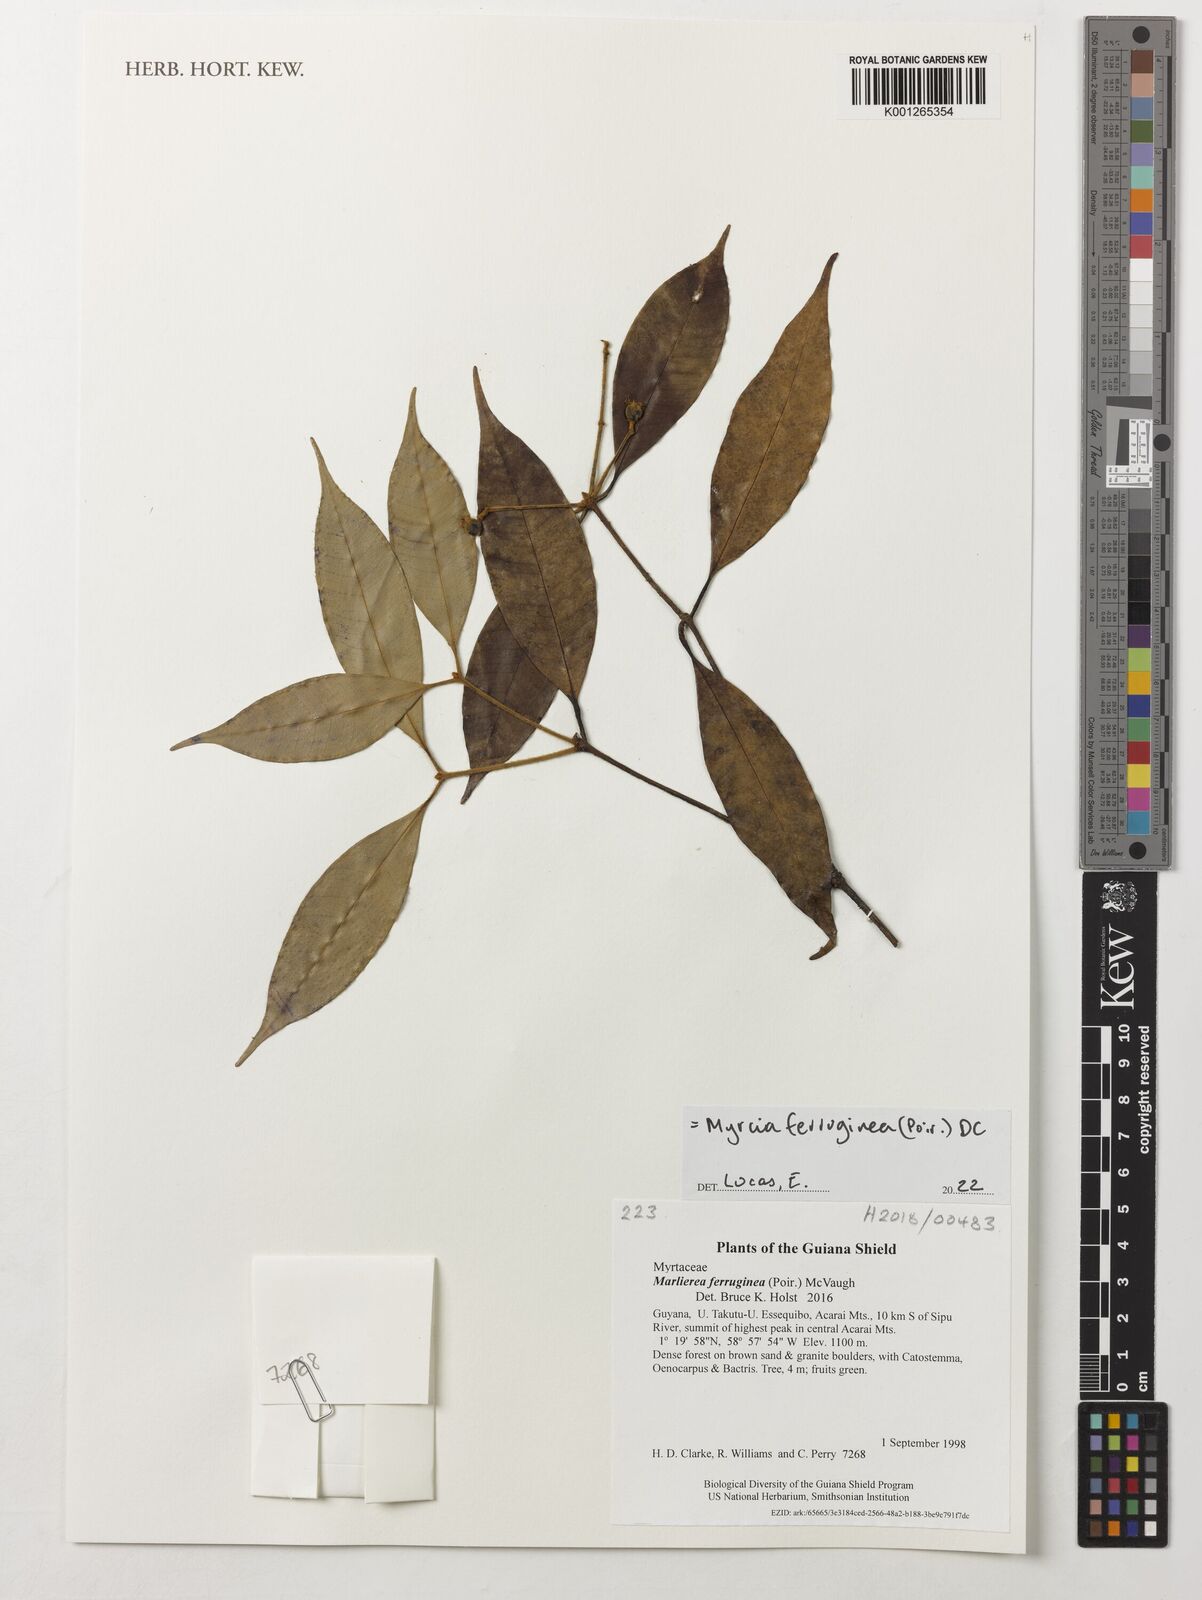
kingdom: Plantae
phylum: Tracheophyta
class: Magnoliopsida
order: Myrtales
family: Myrtaceae
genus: Myrcia
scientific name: Myrcia ferruginea
